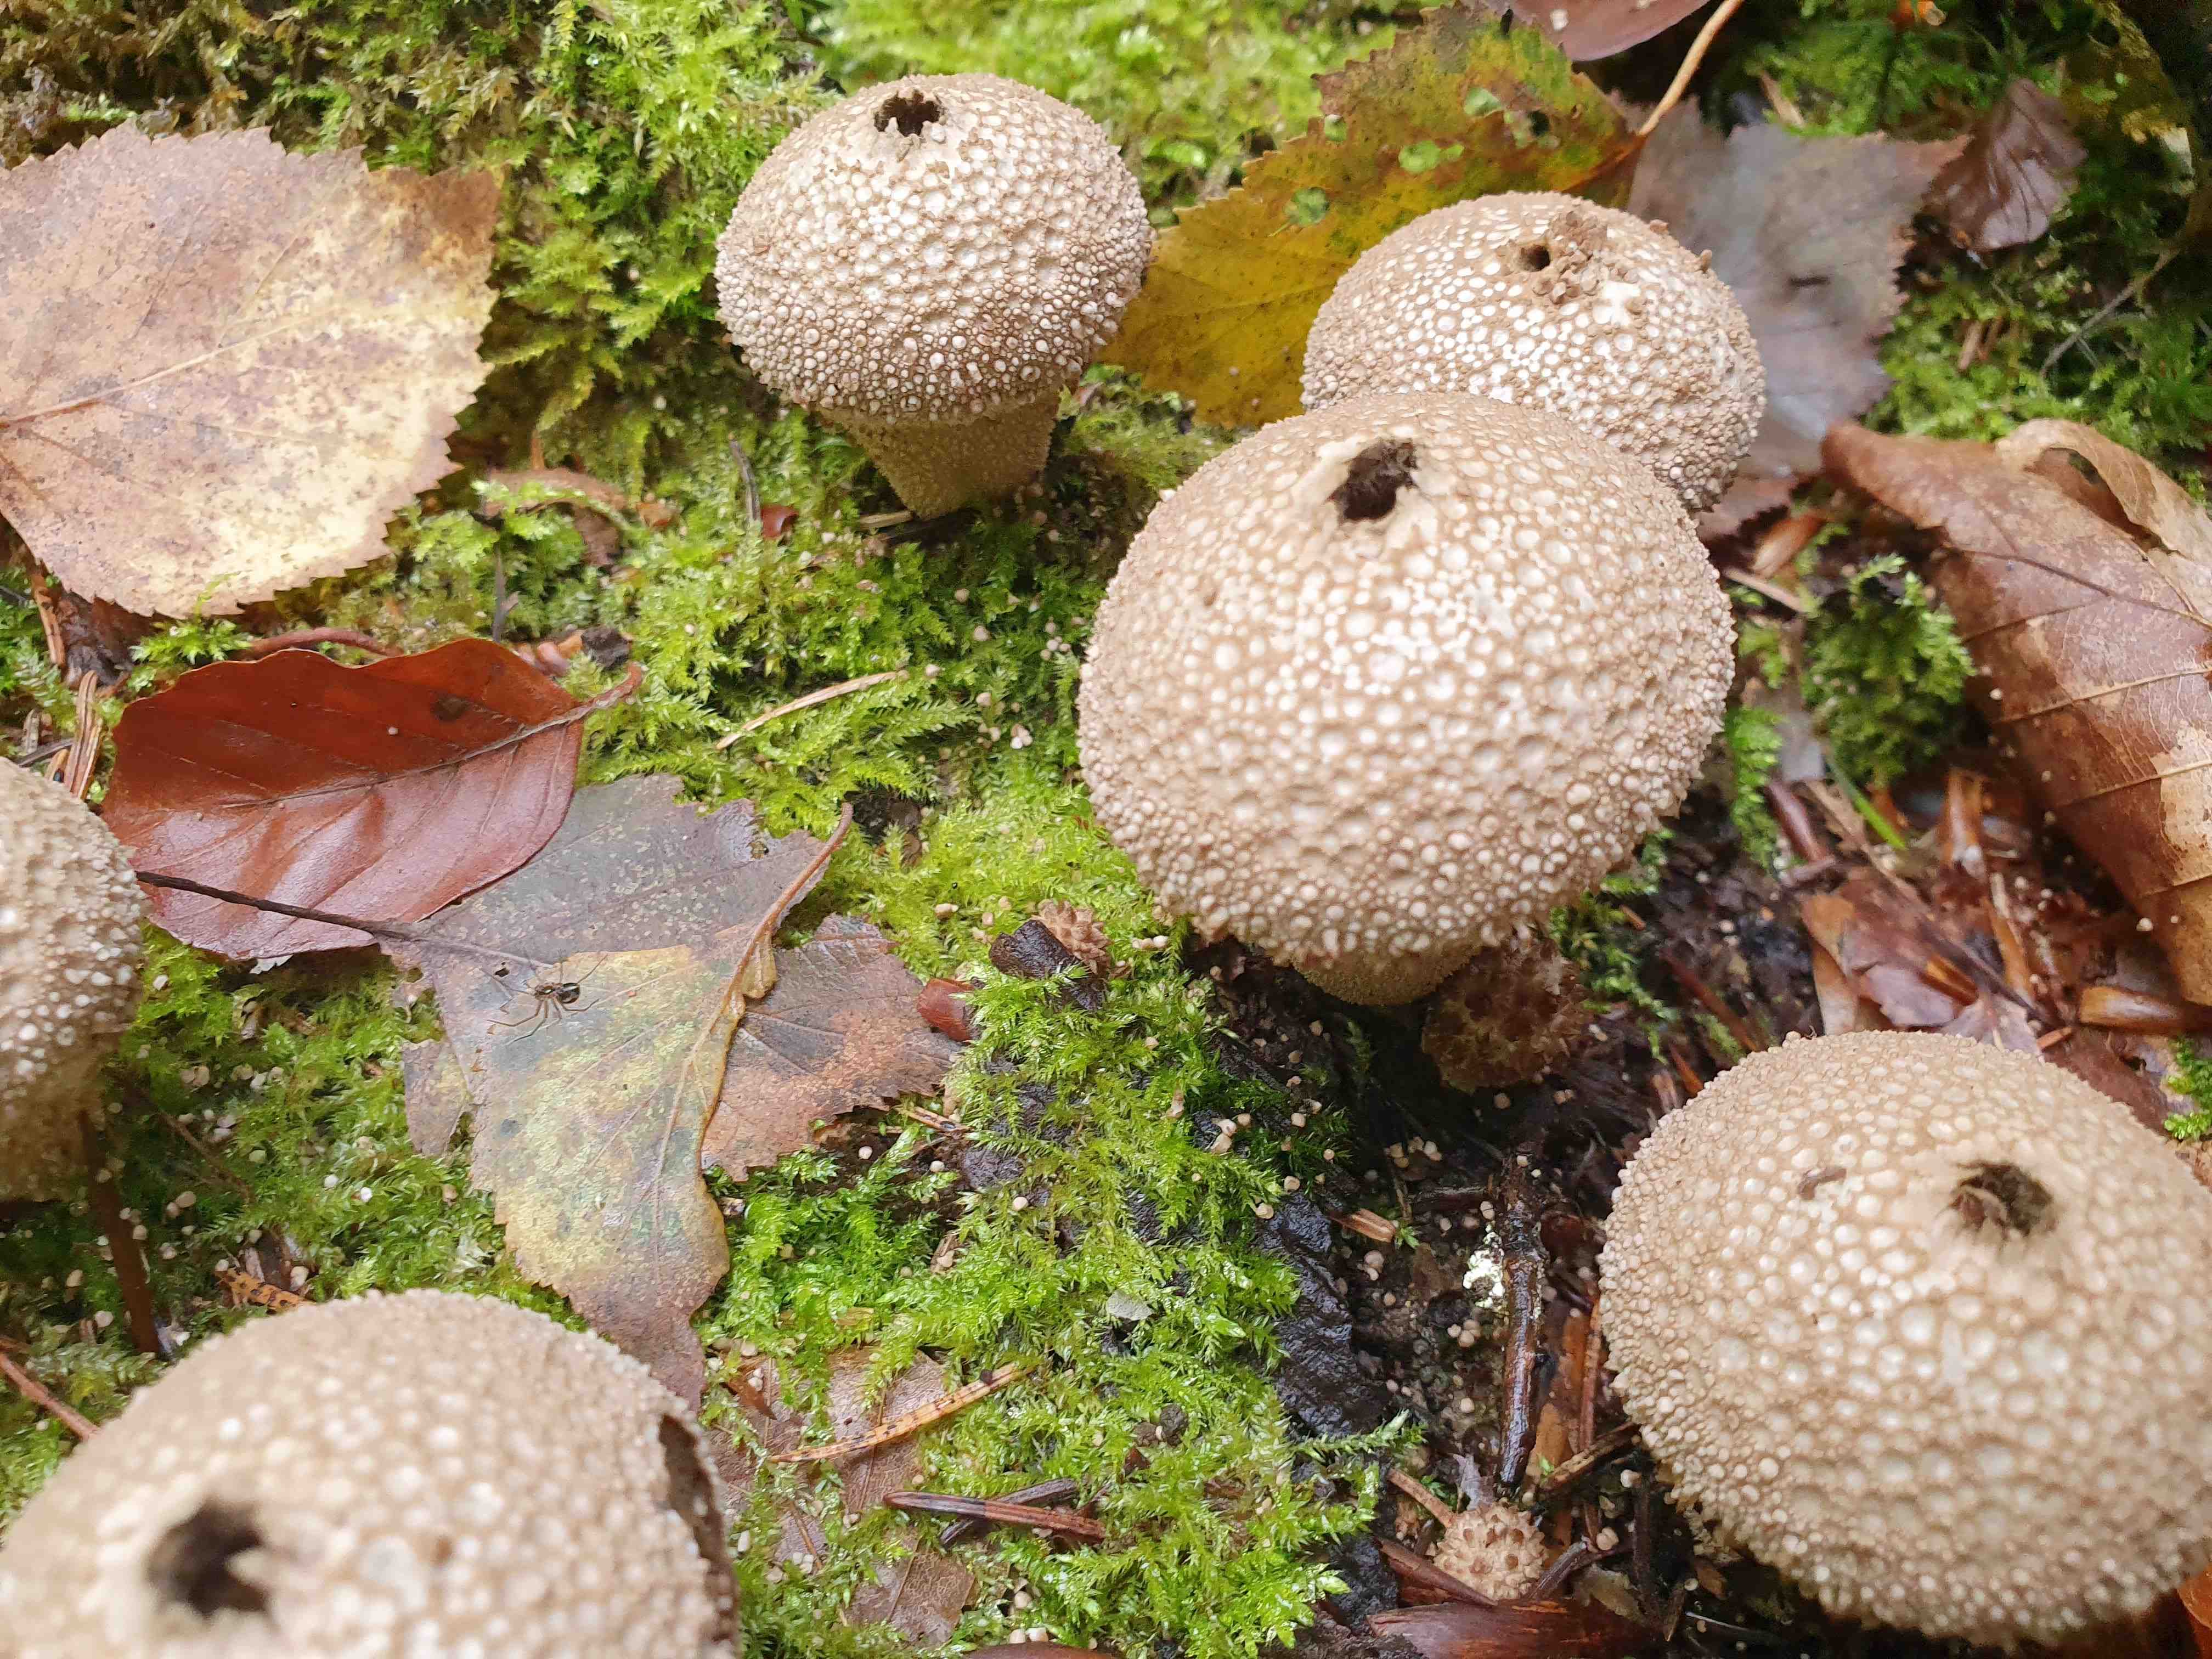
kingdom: Fungi
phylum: Basidiomycota
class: Agaricomycetes
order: Agaricales
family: Lycoperdaceae
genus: Lycoperdon
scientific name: Lycoperdon perlatum
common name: krystal-støvbold
